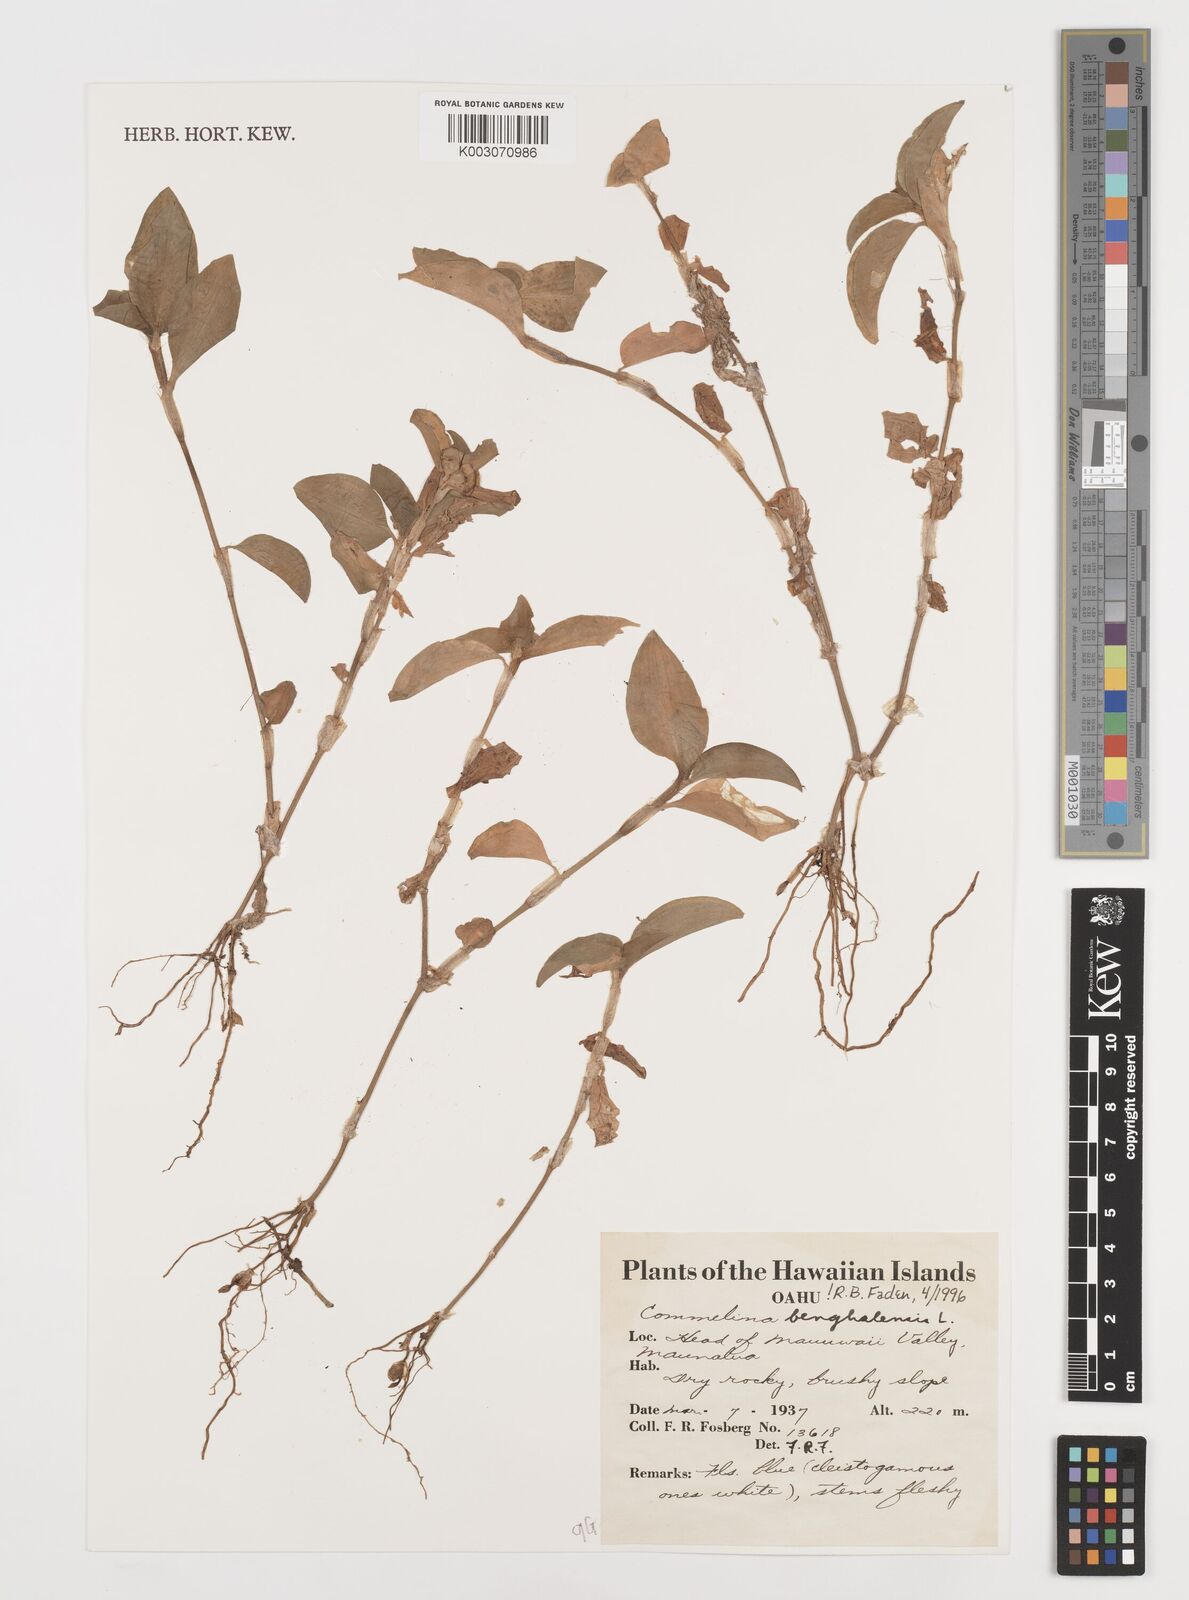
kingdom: Plantae
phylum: Tracheophyta
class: Liliopsida
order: Commelinales
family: Commelinaceae
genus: Commelina
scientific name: Commelina benghalensis
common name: Jio
